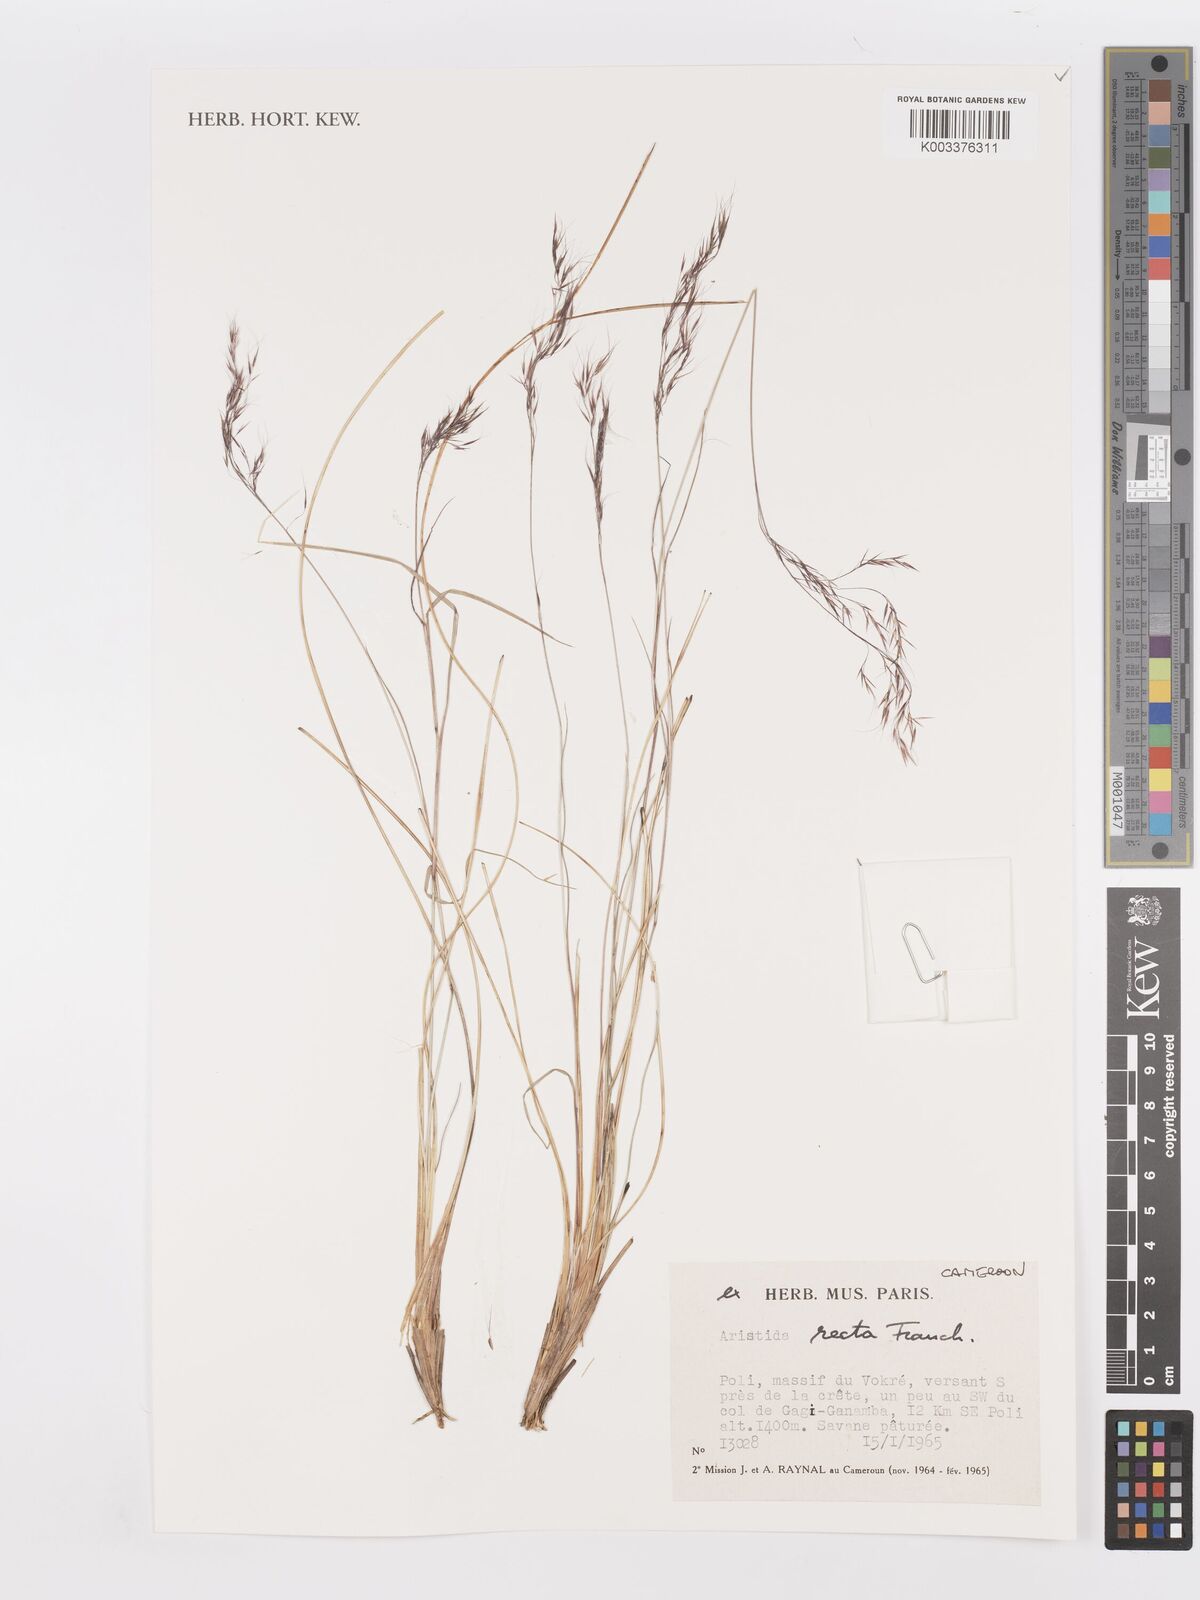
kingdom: Plantae
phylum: Tracheophyta
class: Liliopsida
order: Poales
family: Poaceae
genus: Aristida
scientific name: Aristida recta
